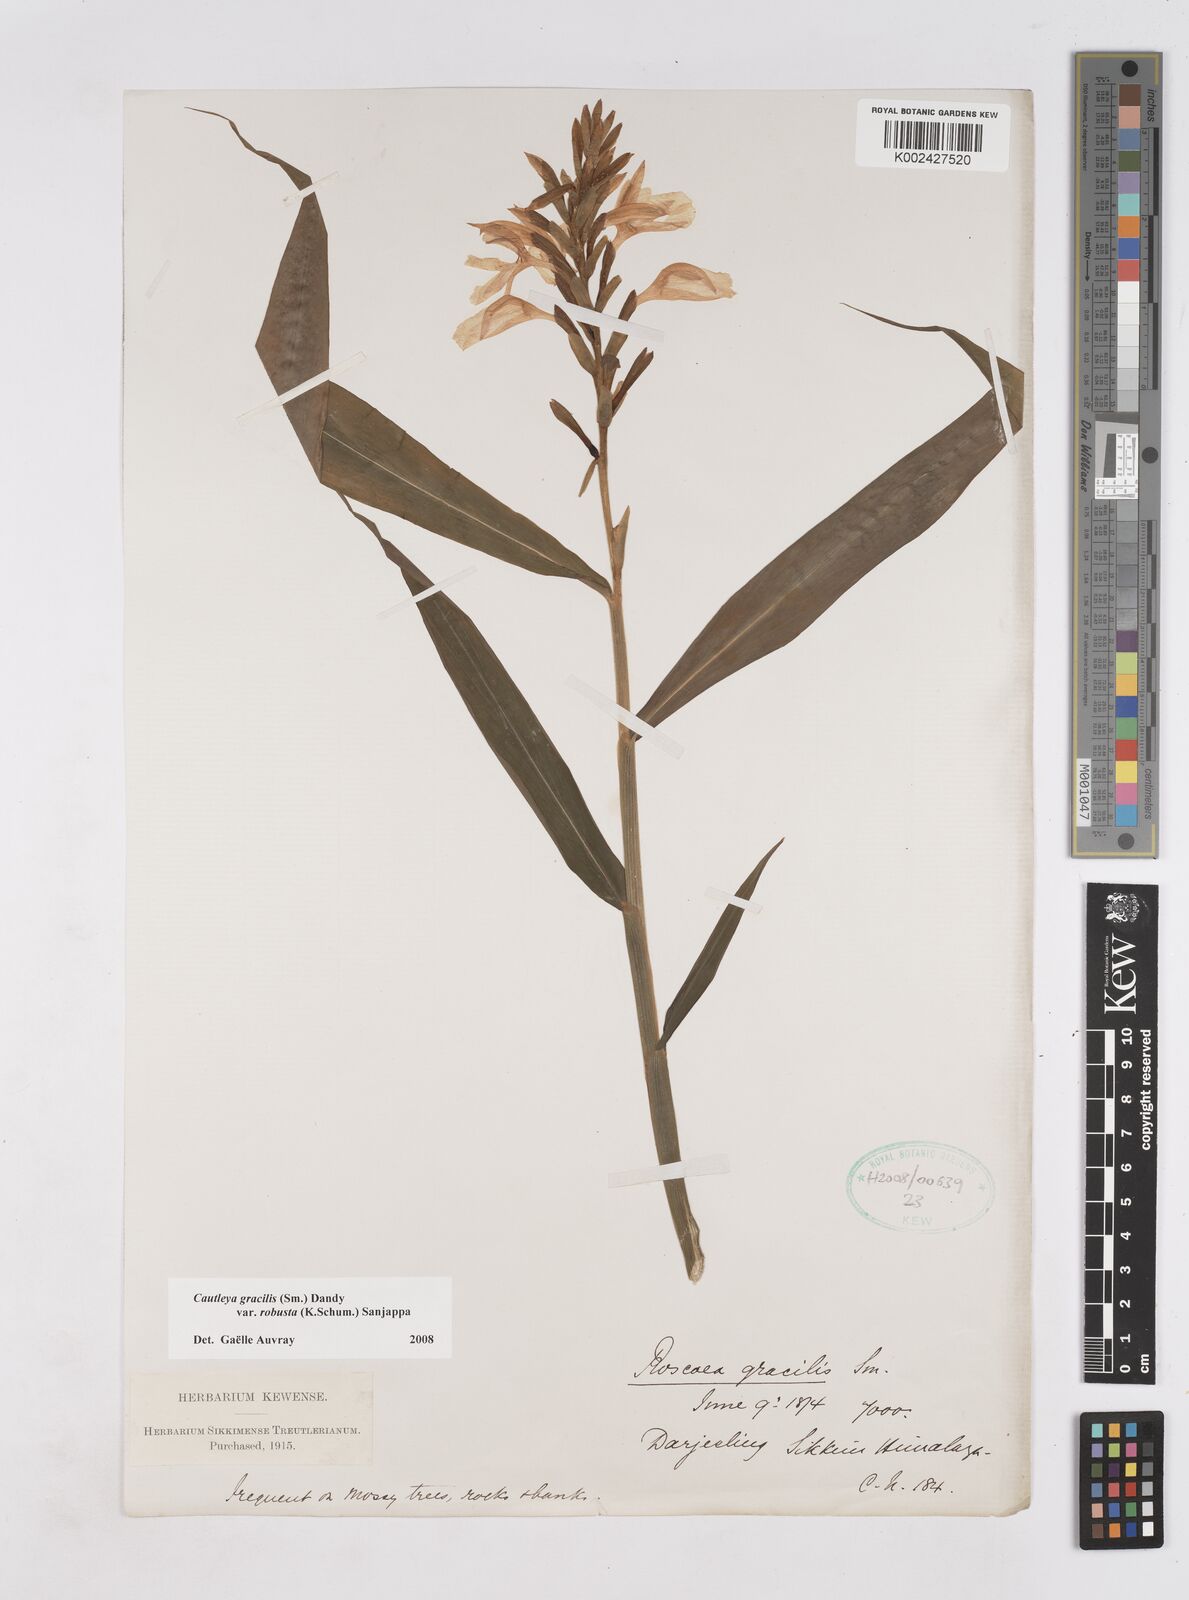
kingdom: Plantae
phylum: Tracheophyta
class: Liliopsida
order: Zingiberales
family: Zingiberaceae
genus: Cautleya
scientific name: Cautleya gracilis
